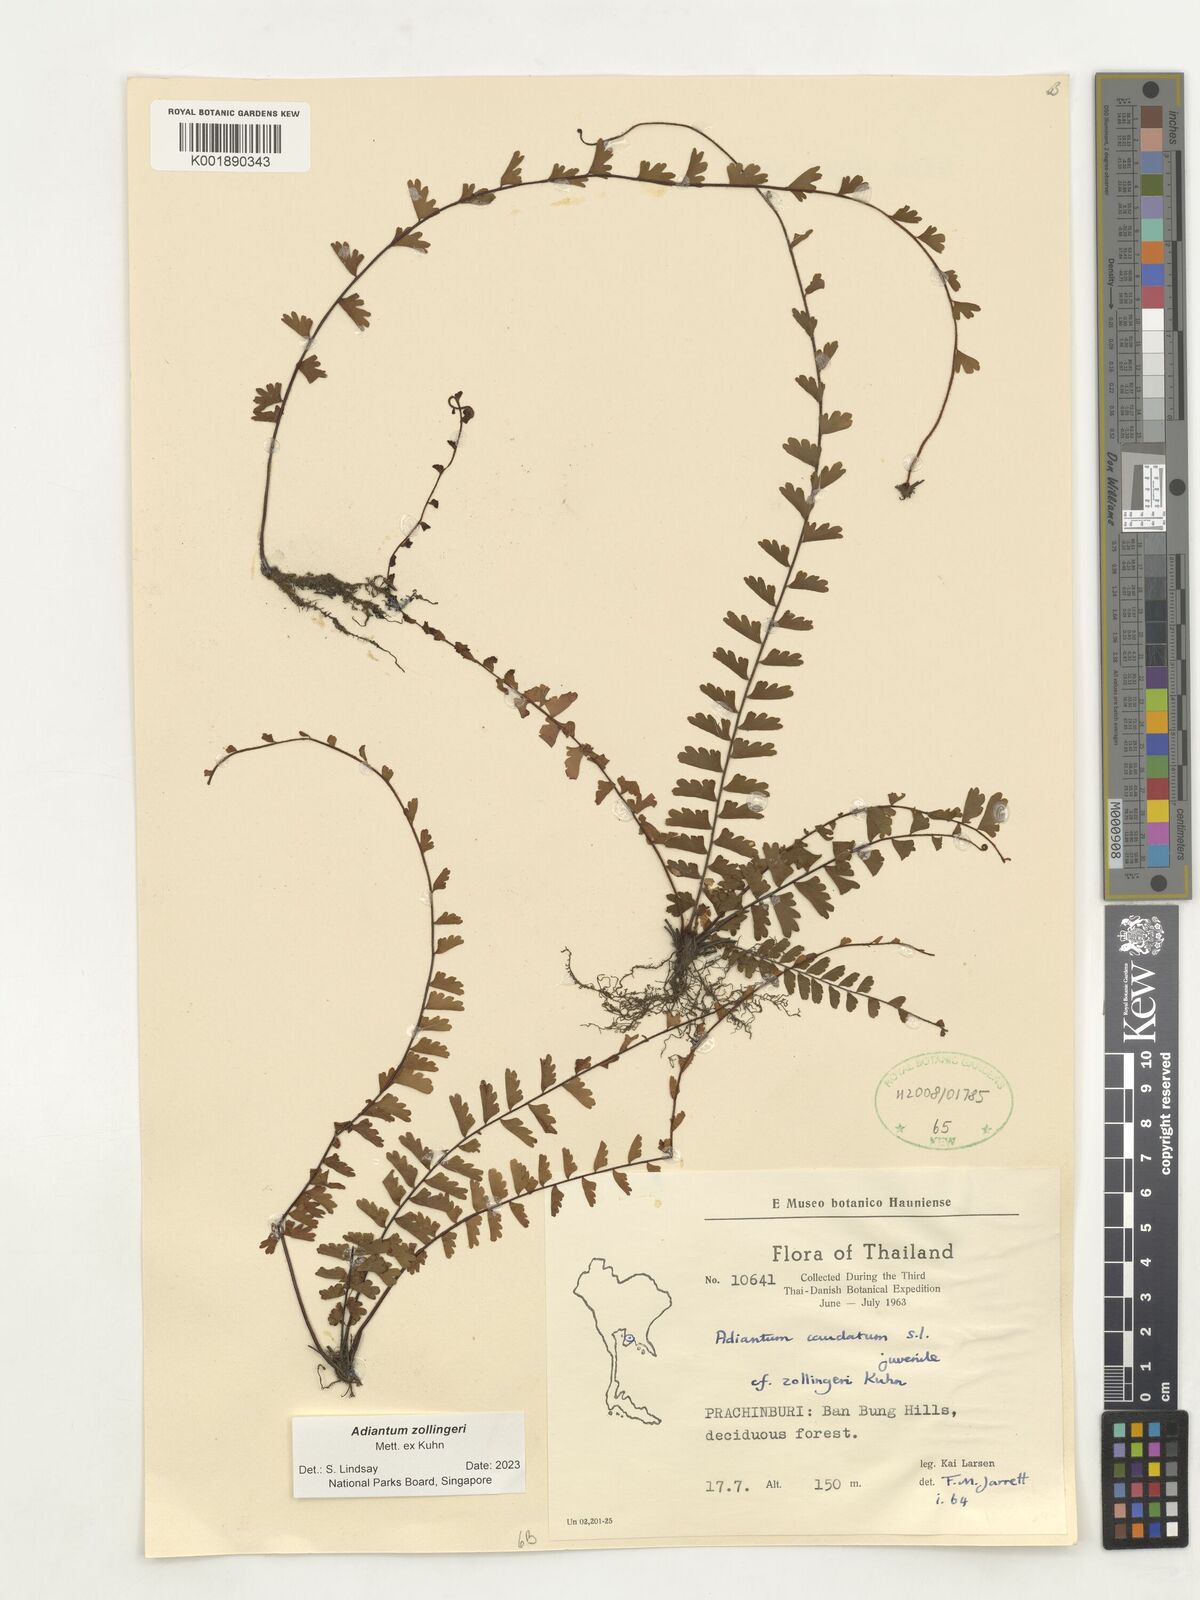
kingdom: Plantae
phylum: Tracheophyta
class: Polypodiopsida
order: Polypodiales
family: Pteridaceae
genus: Adiantum
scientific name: Adiantum zollingeri
